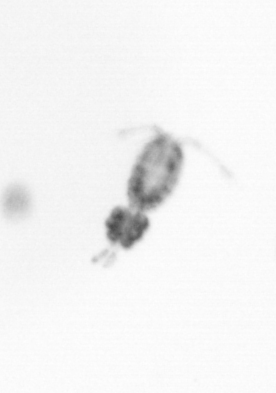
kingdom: Animalia
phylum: Arthropoda
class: Copepoda
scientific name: Copepoda
